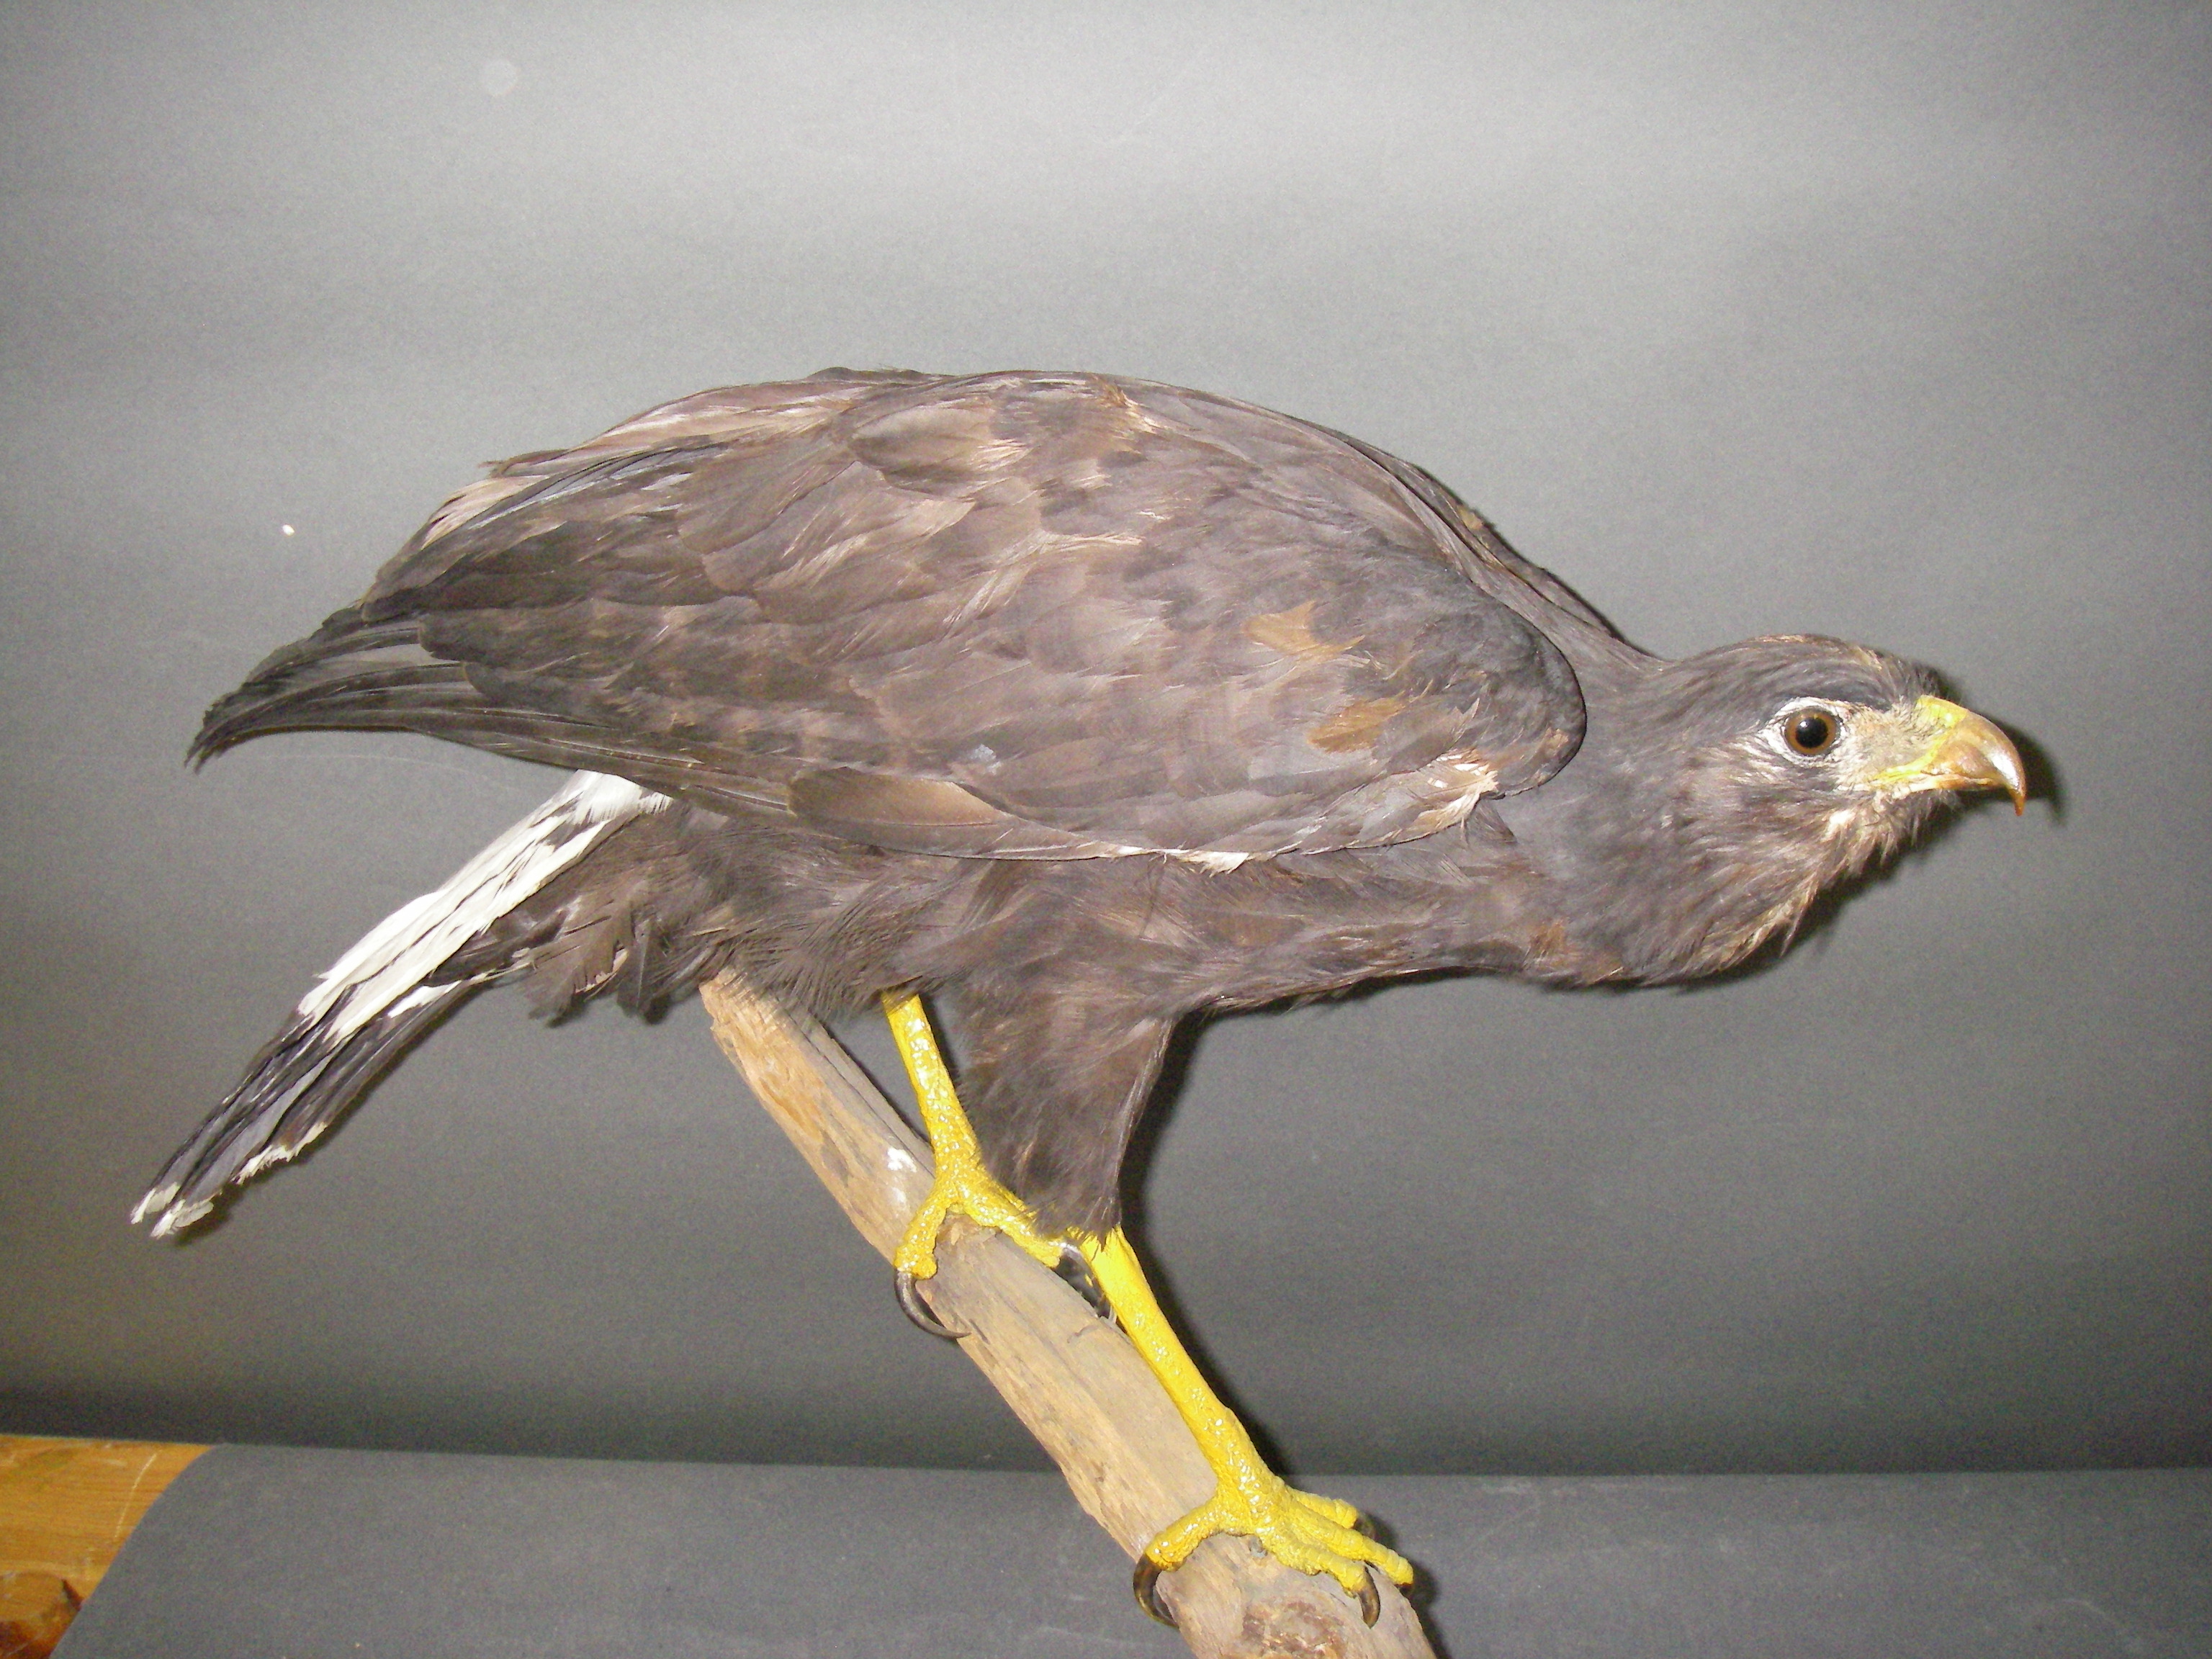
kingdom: Animalia
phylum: Chordata
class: Aves
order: Accipitriformes
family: Accipitridae
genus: Buteogallus
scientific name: Buteogallus urubitinga
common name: Great black hawk
